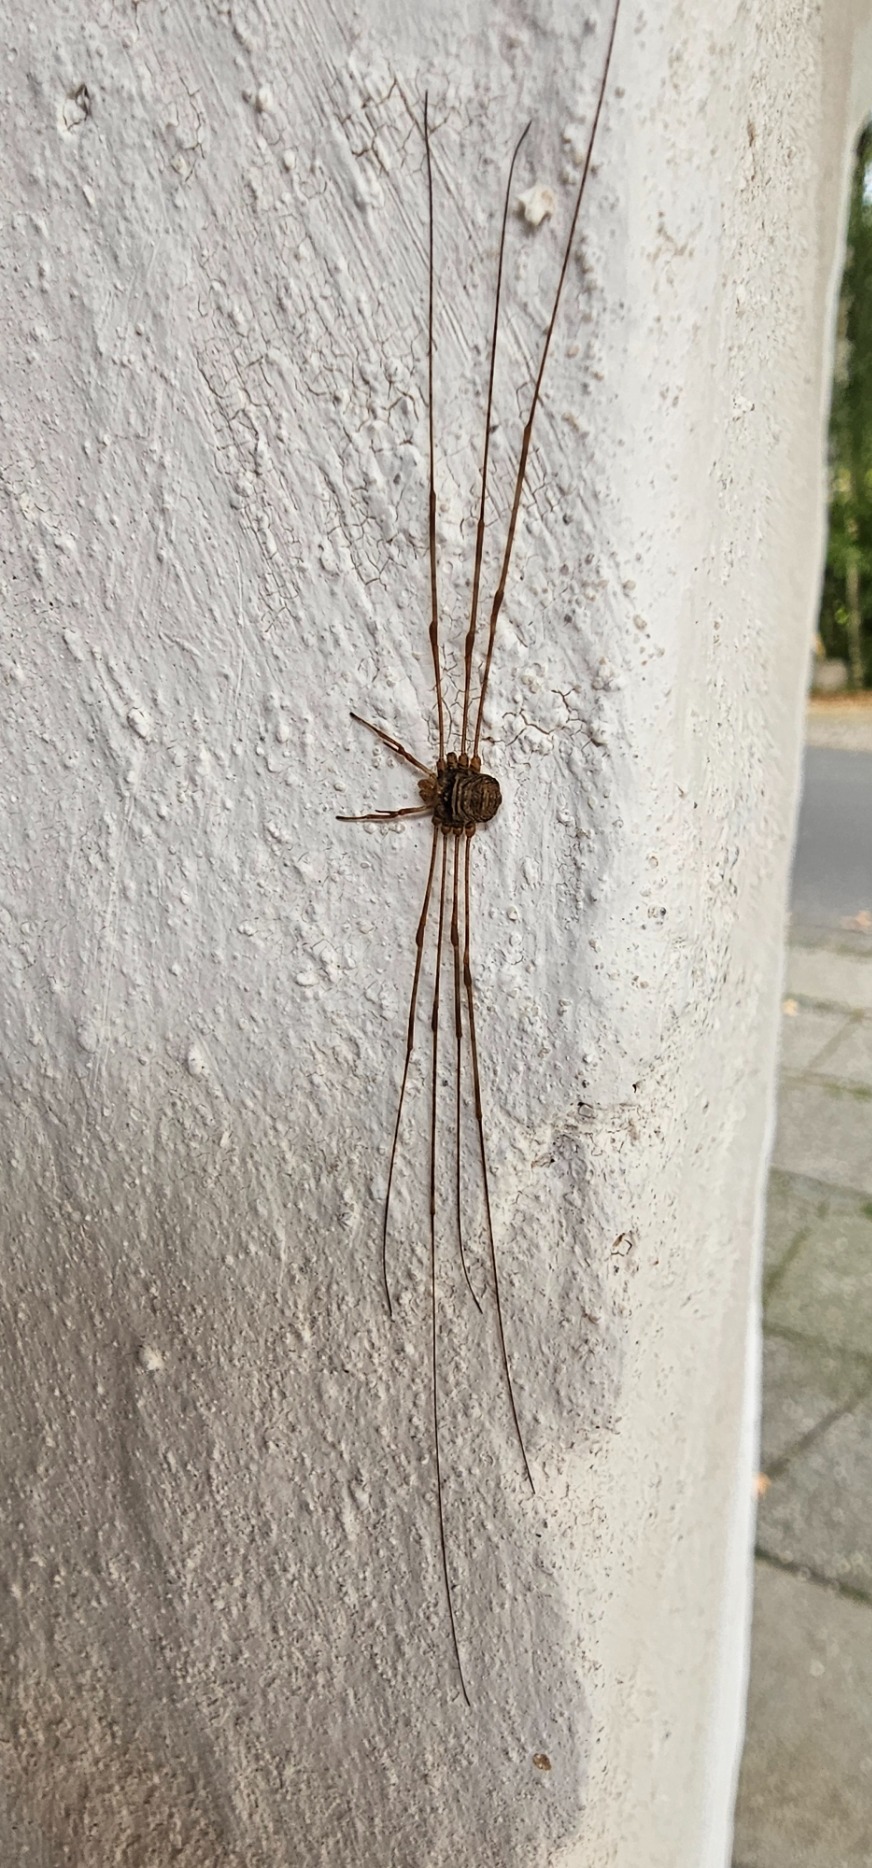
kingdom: Animalia
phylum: Arthropoda
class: Arachnida
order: Opiliones
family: Phalangiidae
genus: Dicranopalpus
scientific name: Dicranopalpus ramosus
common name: Gaffelmejer
